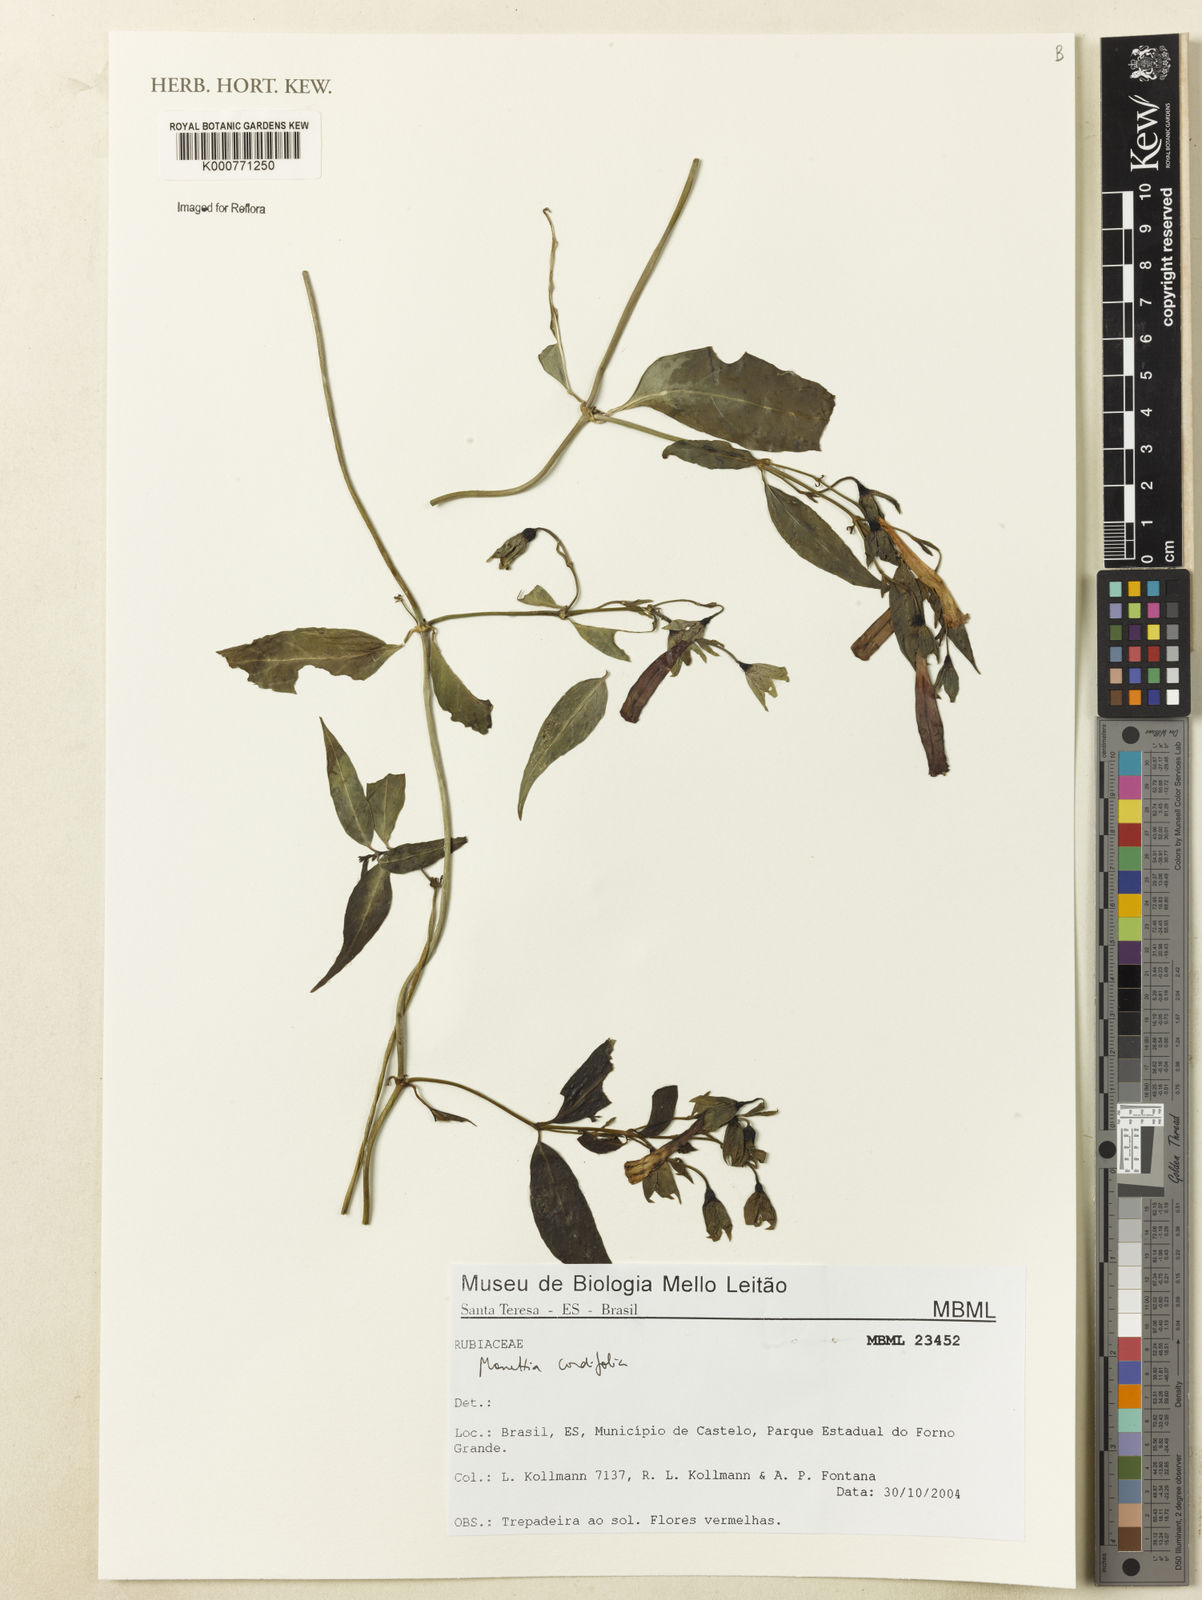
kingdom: Plantae
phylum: Tracheophyta
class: Magnoliopsida
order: Gentianales
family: Rubiaceae
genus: Manettia
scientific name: Manettia cordifolia
